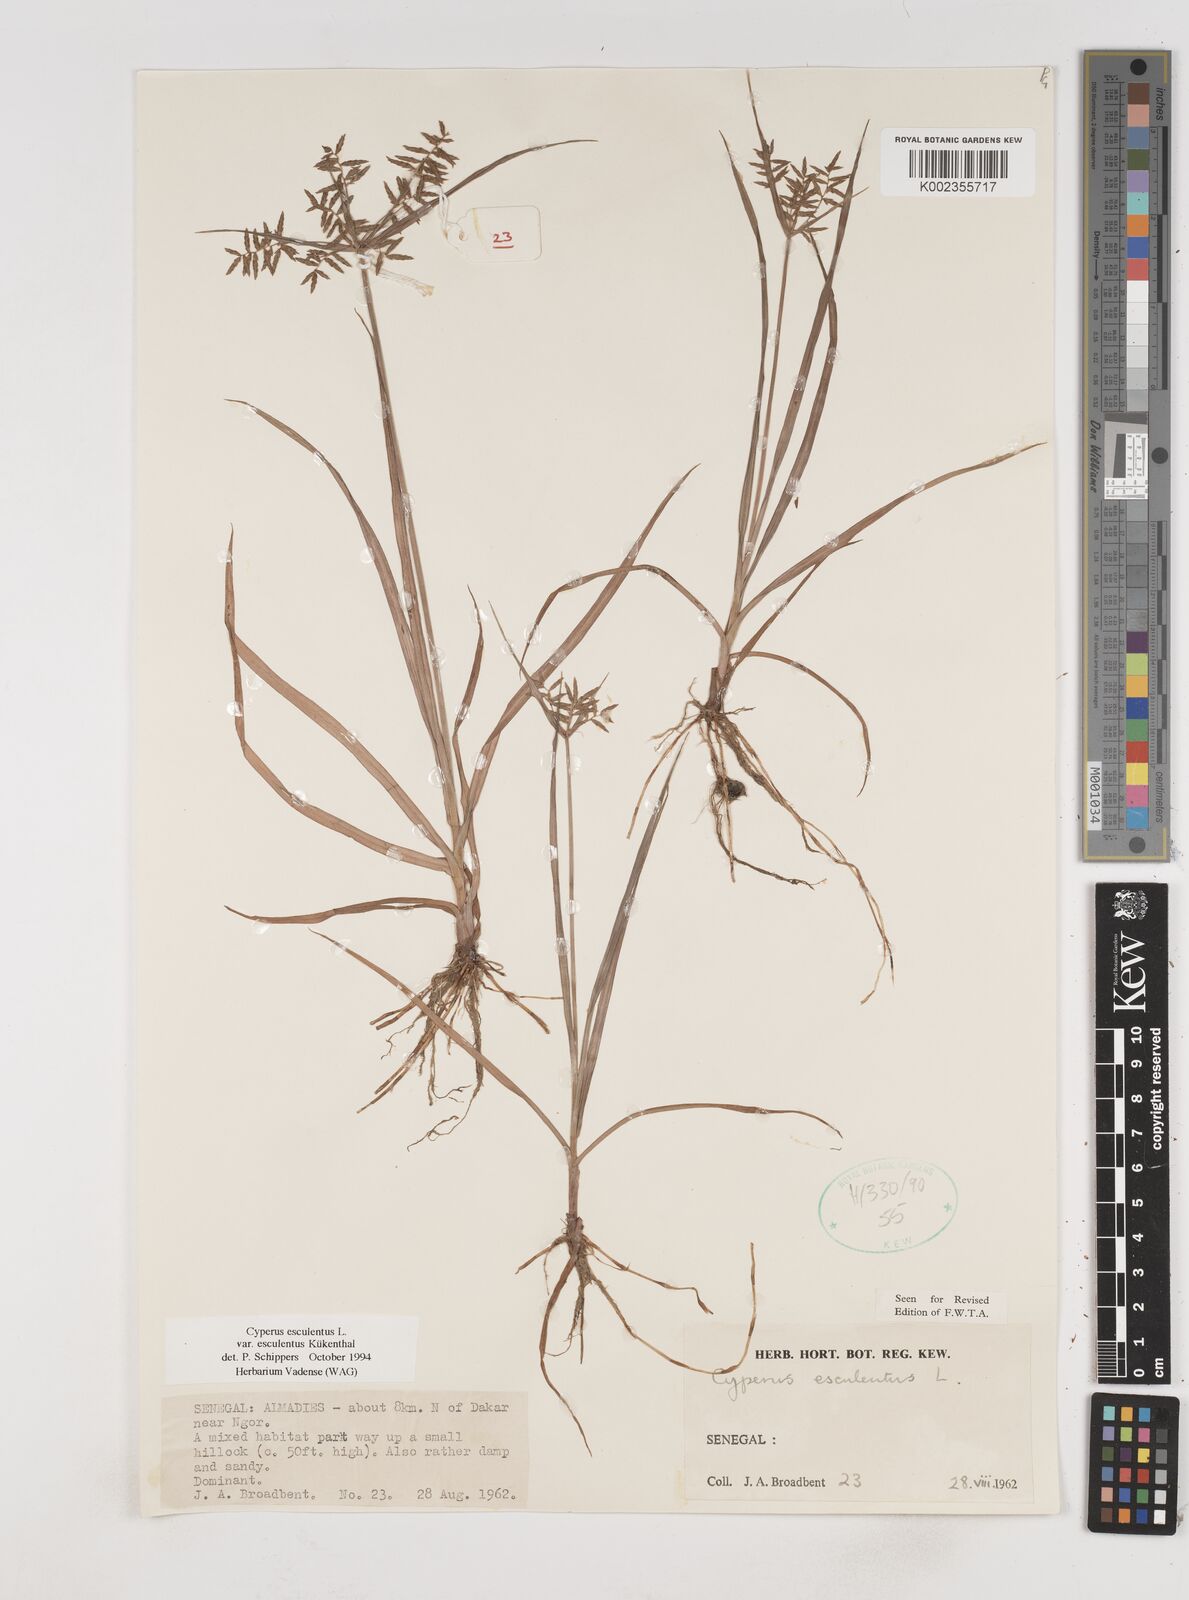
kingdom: Plantae
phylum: Tracheophyta
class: Liliopsida
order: Poales
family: Cyperaceae
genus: Cyperus
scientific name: Cyperus esculentus
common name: Yellow nutsedge
